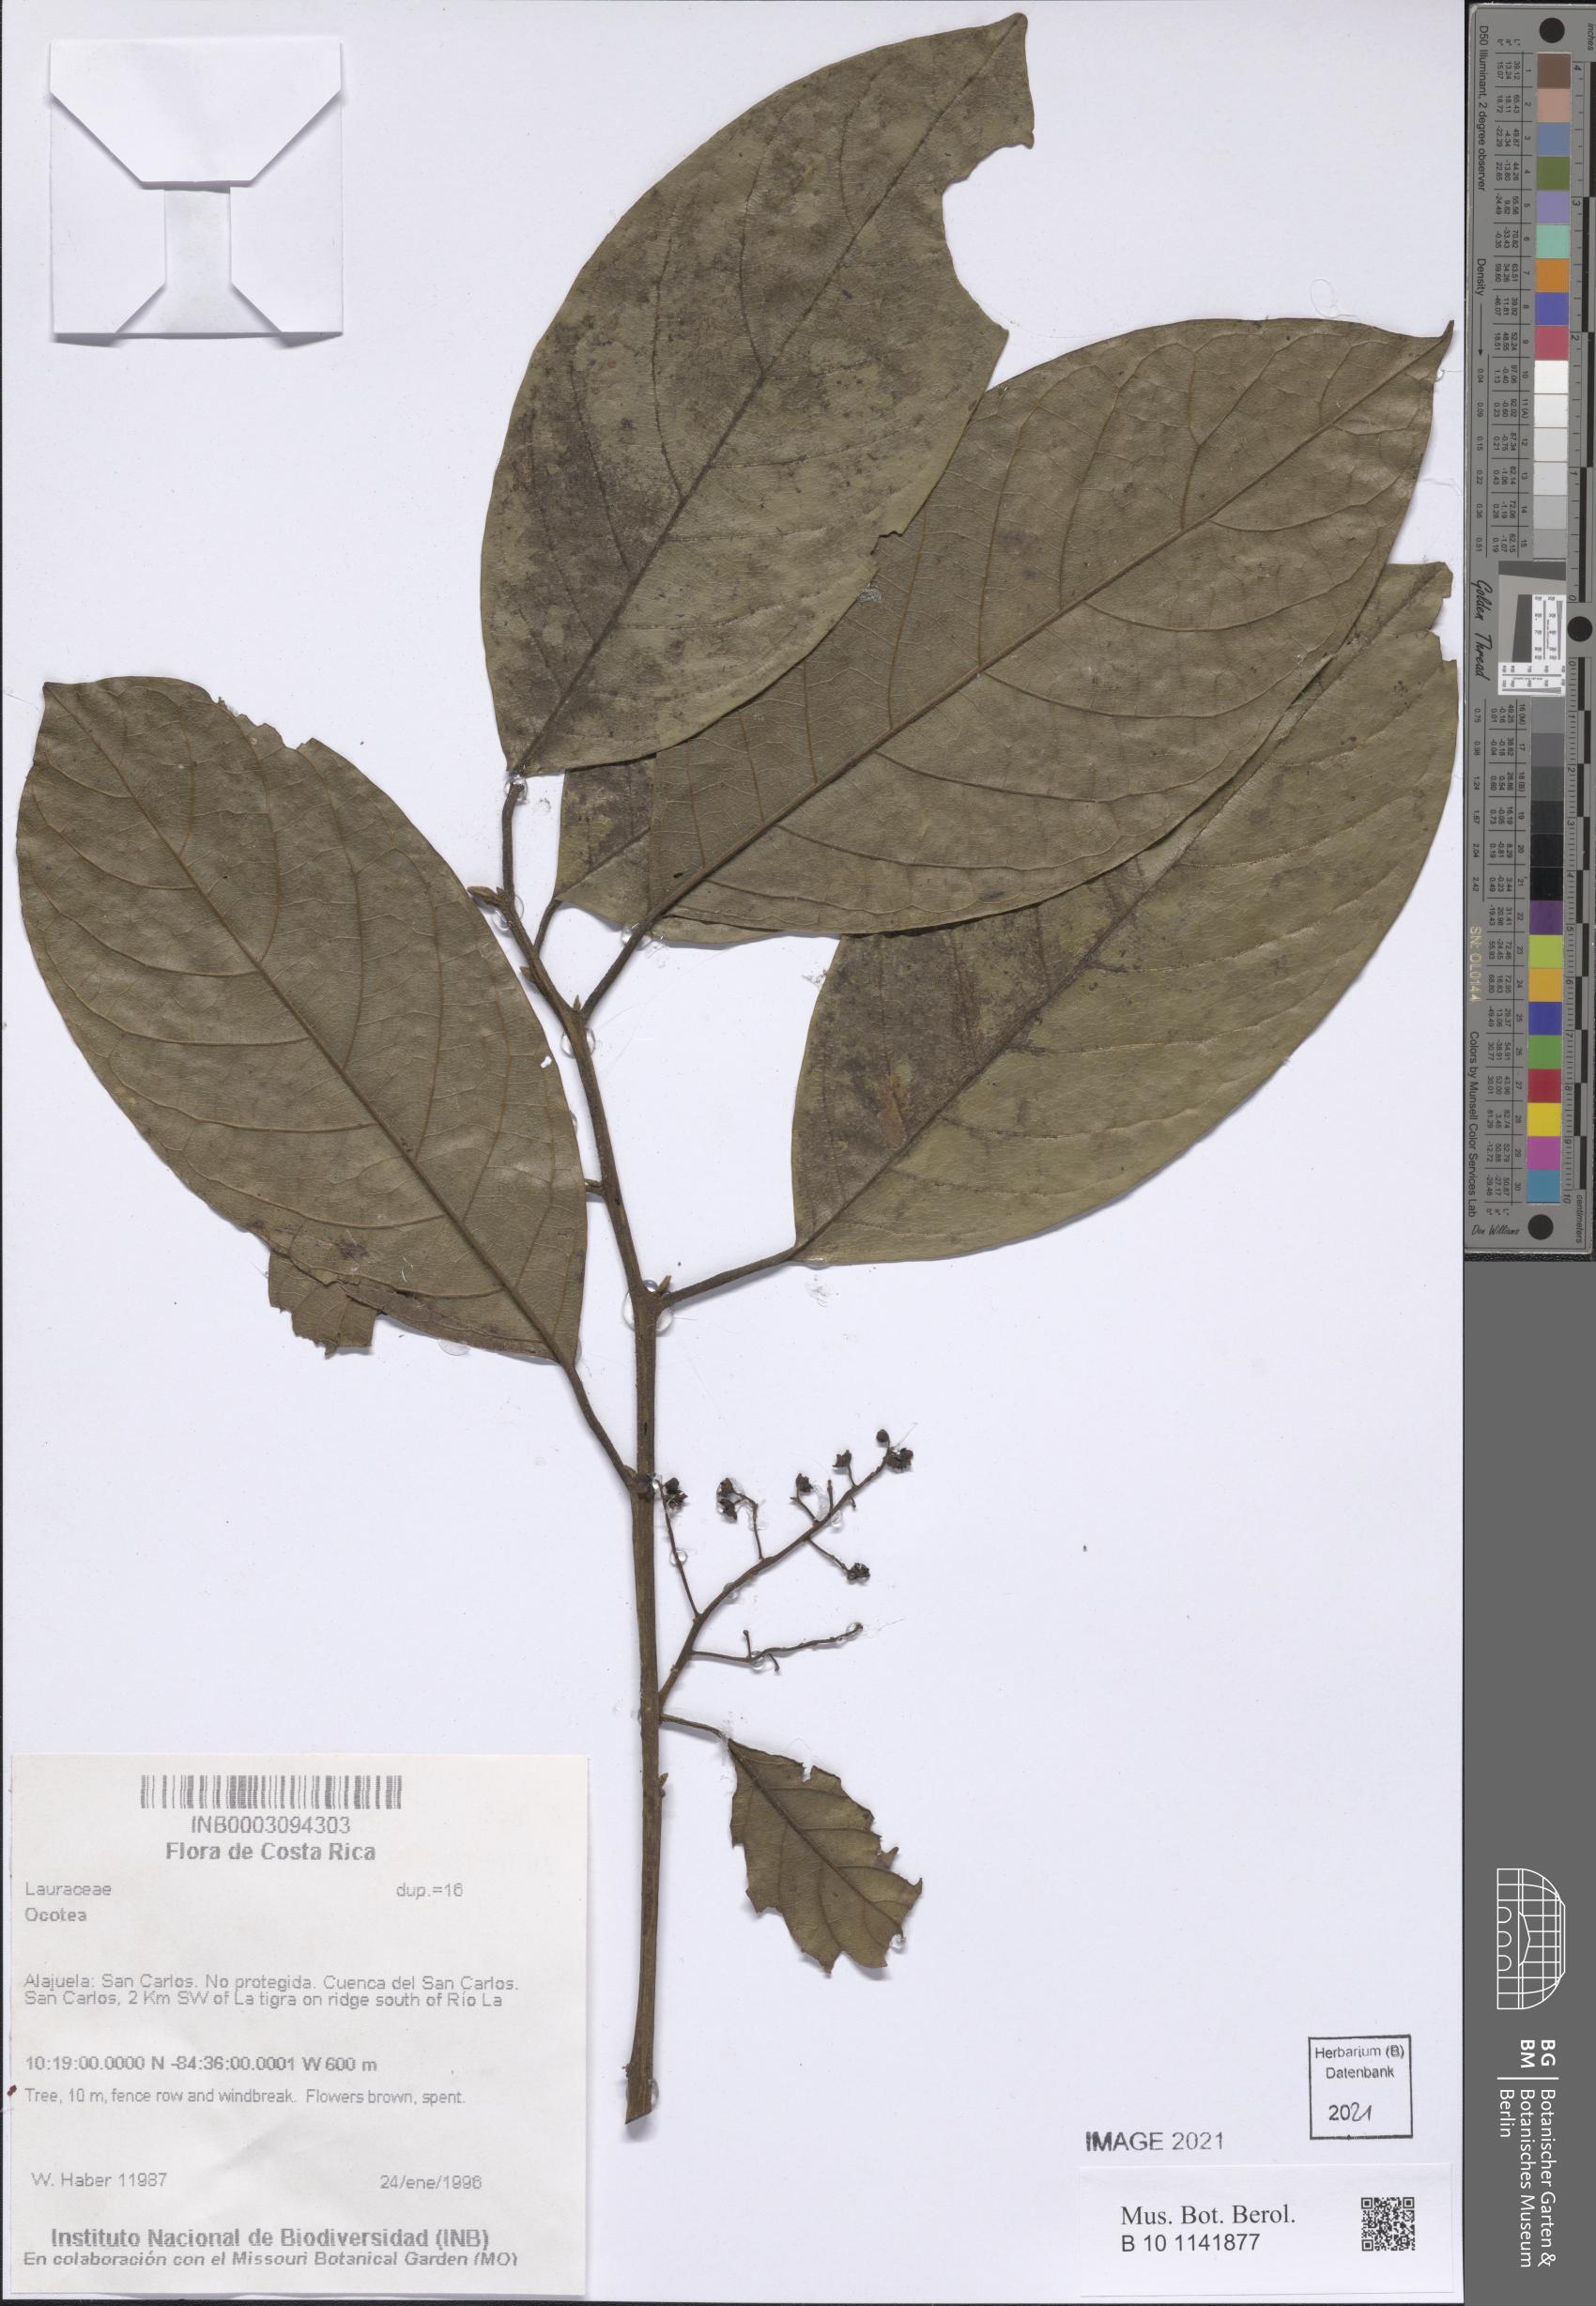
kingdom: Plantae
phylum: Tracheophyta
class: Magnoliopsida
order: Laurales
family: Lauraceae
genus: Ocotea
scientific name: Ocotea
